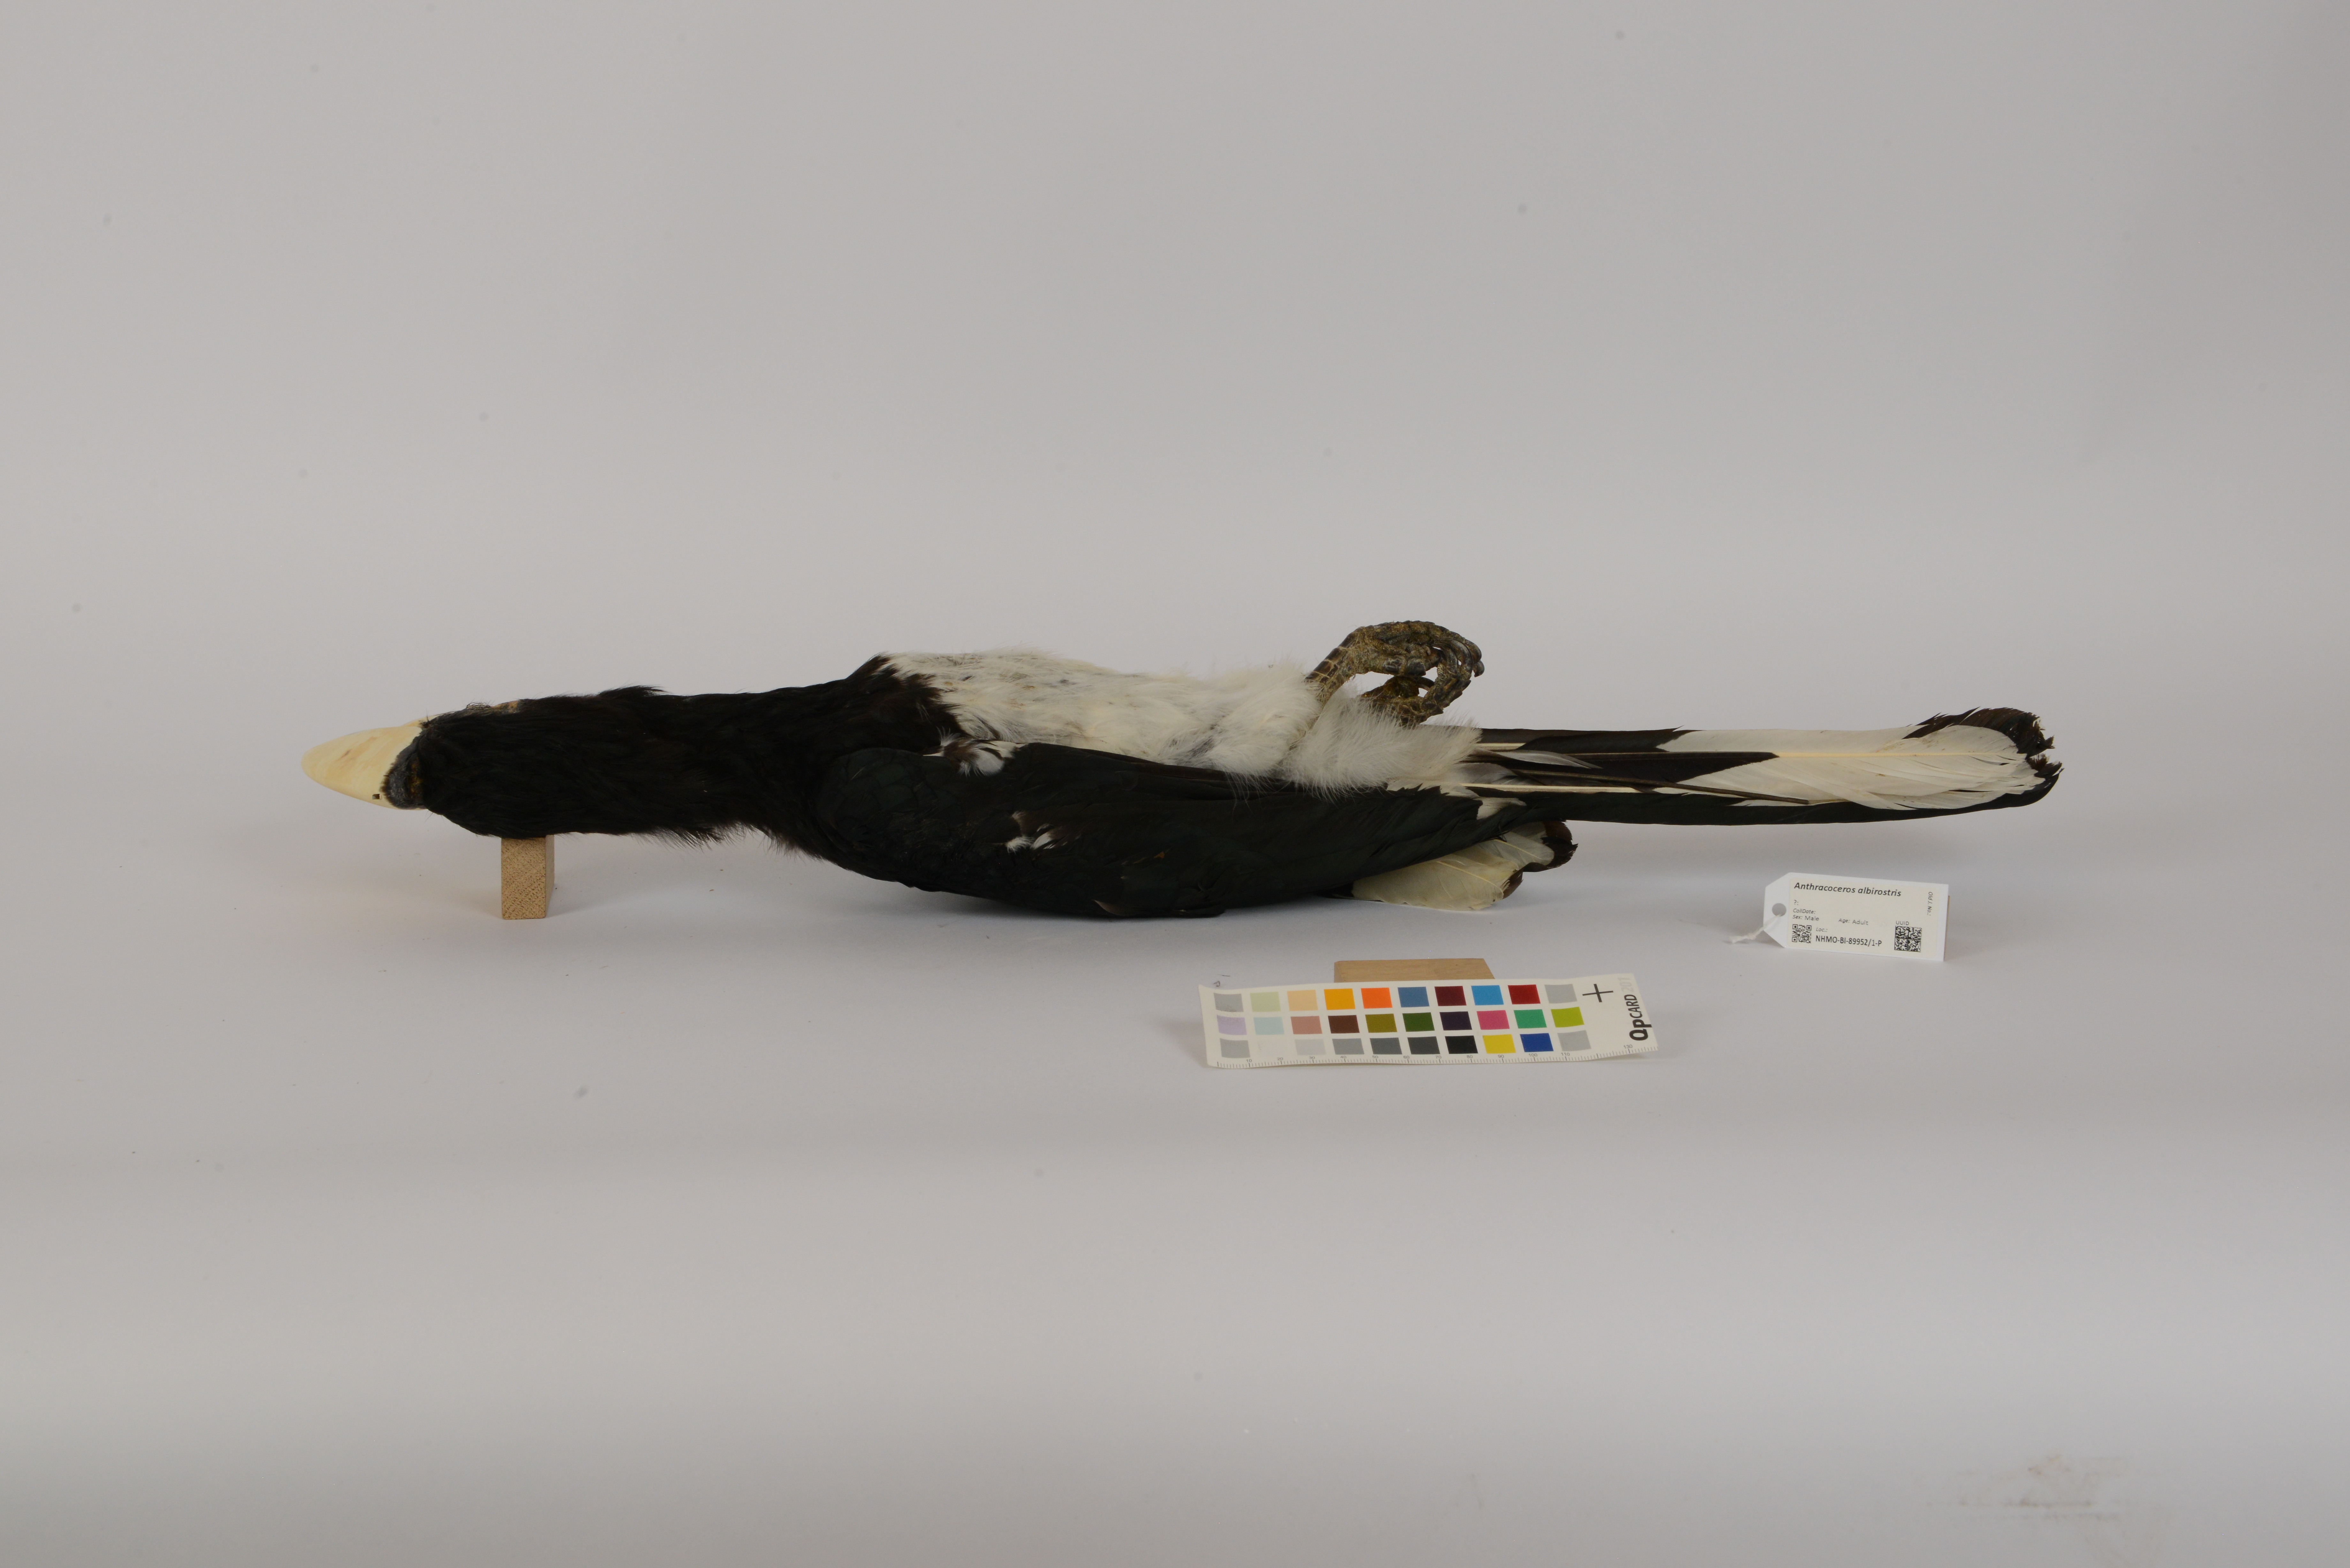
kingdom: Animalia
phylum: Chordata
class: Aves
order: Bucerotiformes
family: Bucerotidae
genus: Anthracoceros
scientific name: Anthracoceros albirostris
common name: Oriental pied-hornbill
